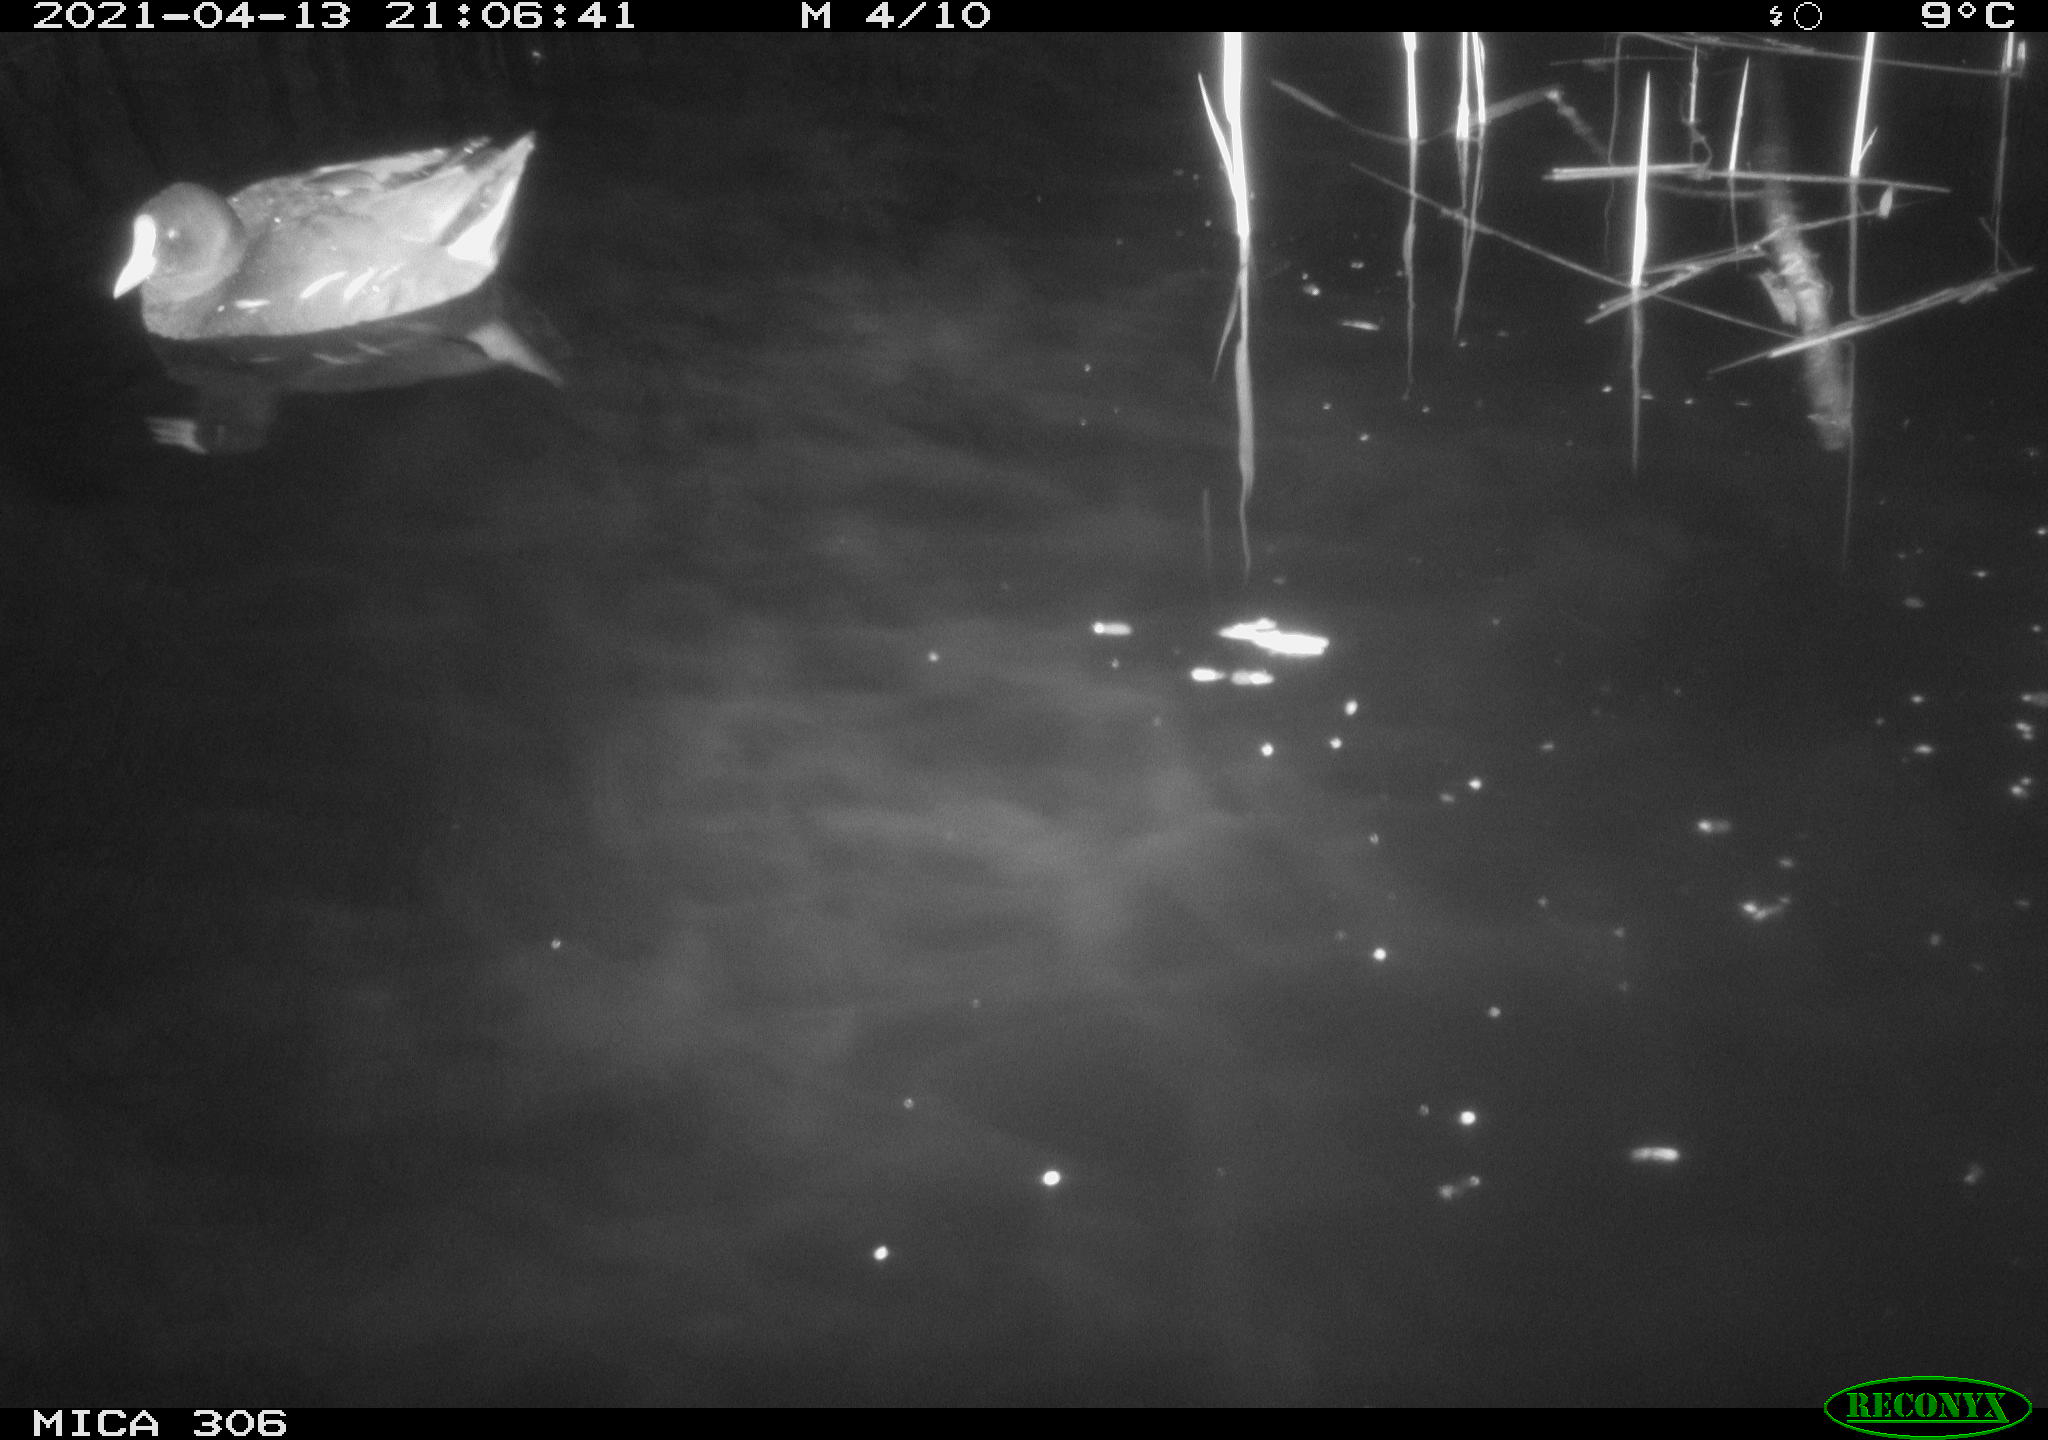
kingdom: Animalia
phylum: Chordata
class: Aves
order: Gruiformes
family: Rallidae
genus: Gallinula
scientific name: Gallinula chloropus
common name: Common moorhen
